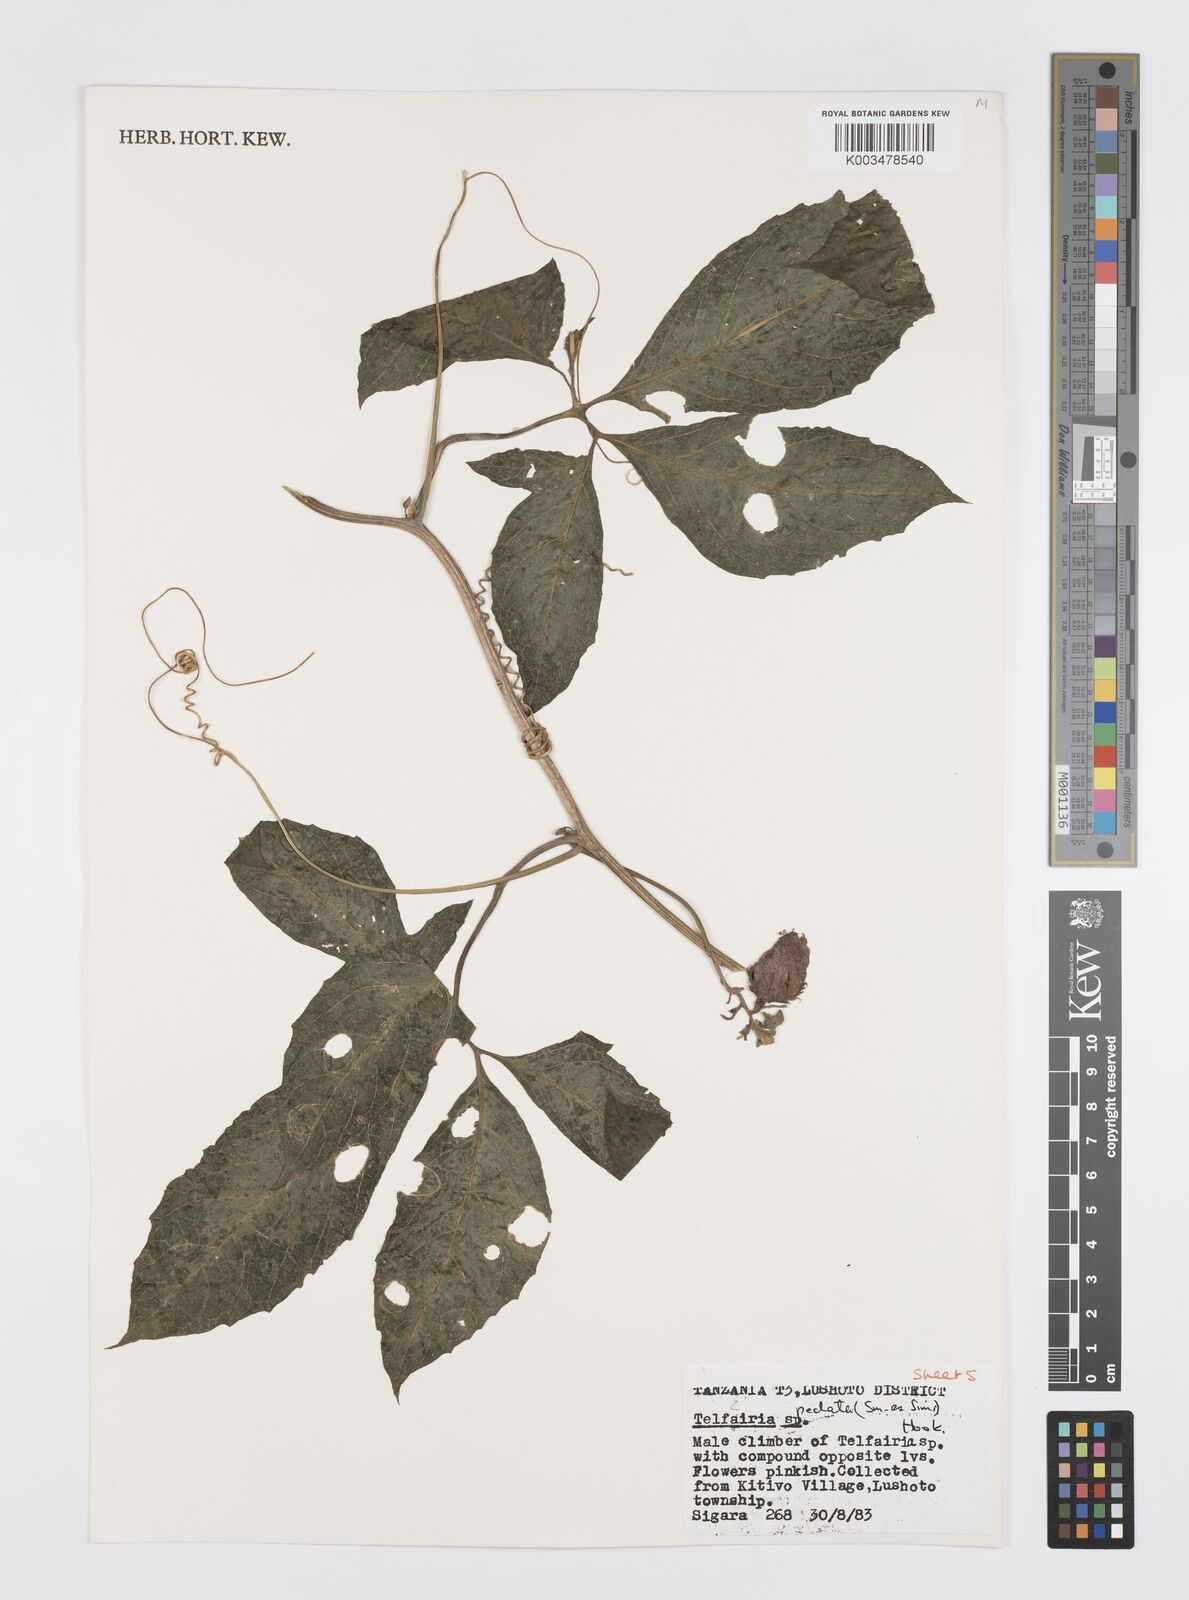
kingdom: Plantae
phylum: Tracheophyta
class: Magnoliopsida
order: Cucurbitales
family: Cucurbitaceae
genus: Telfairia
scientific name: Telfairia pedata
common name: Zanzibar oilvine
